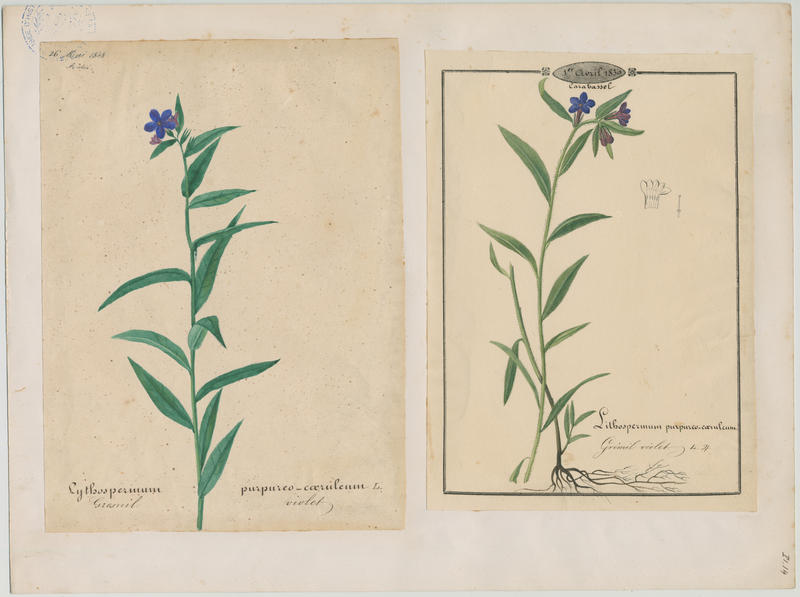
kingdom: Plantae
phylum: Tracheophyta
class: Magnoliopsida
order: Boraginales
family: Boraginaceae
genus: Aegonychon
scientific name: Aegonychon purpurocaeruleum
